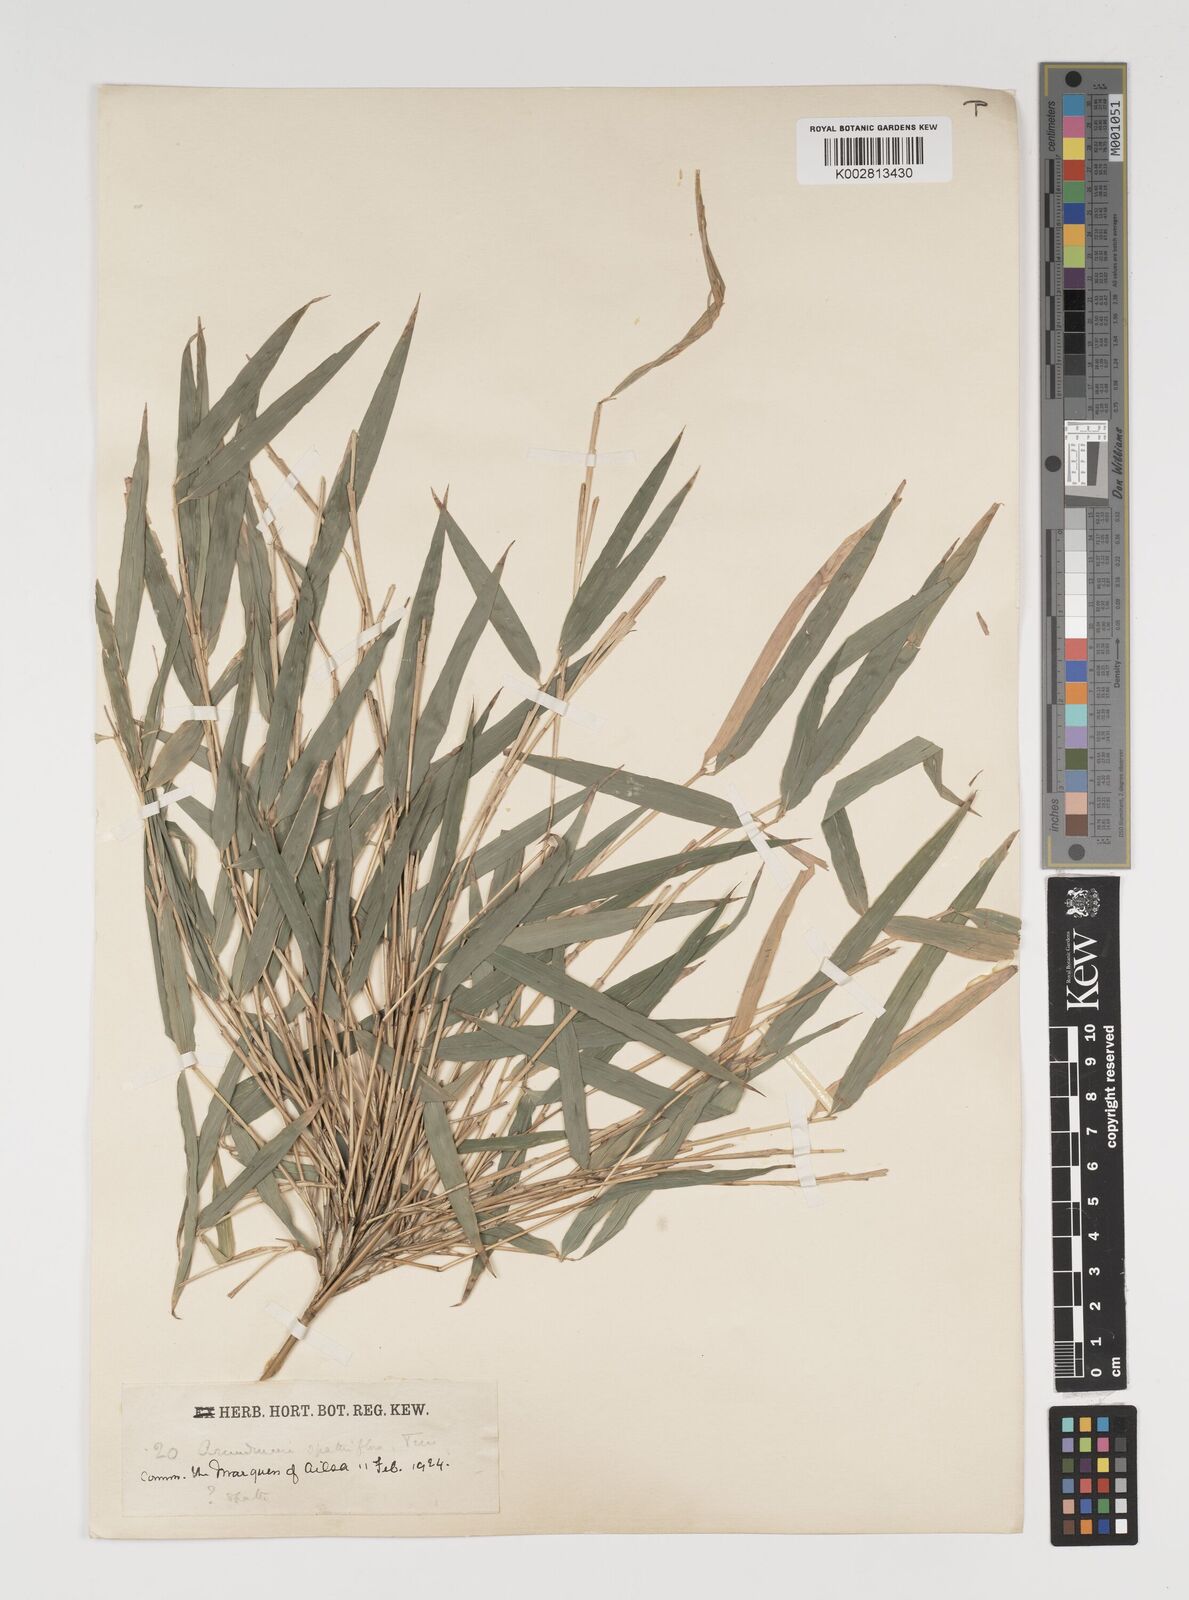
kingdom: Plantae
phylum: Tracheophyta
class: Liliopsida
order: Poales
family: Poaceae
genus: Thamnocalamus
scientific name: Thamnocalamus spathiflorus
